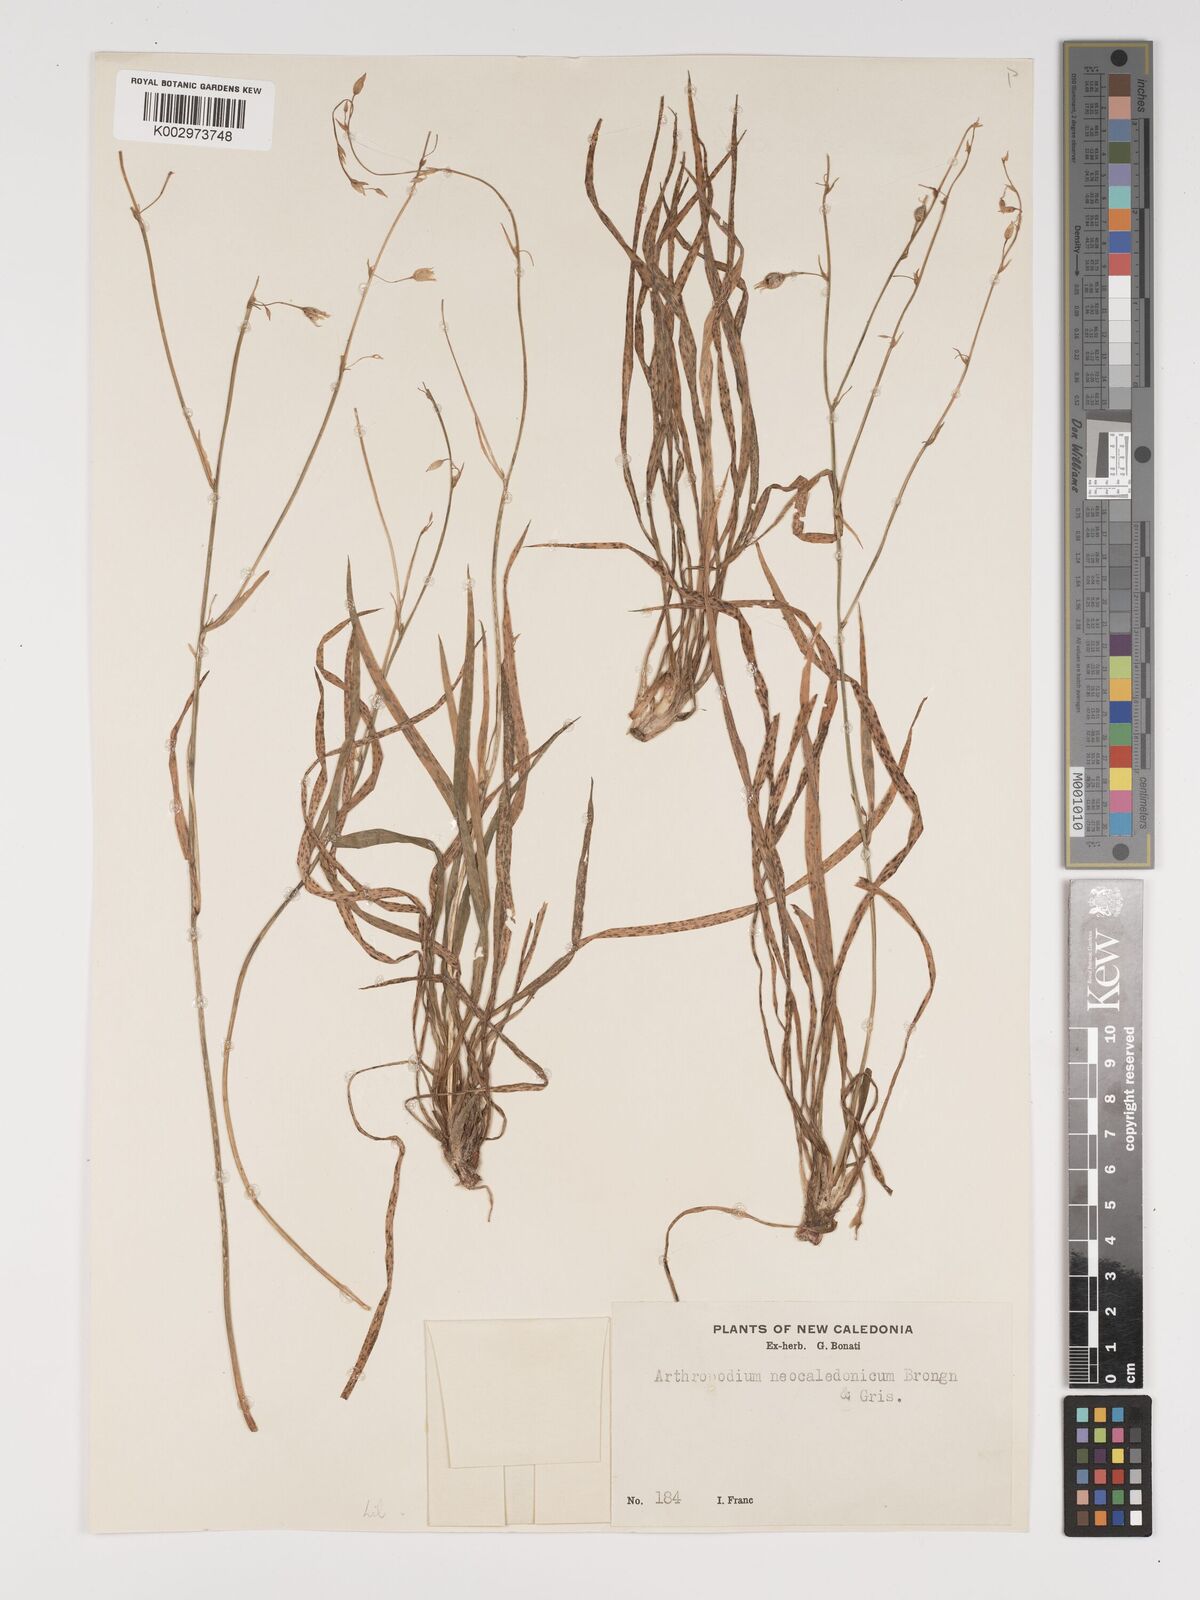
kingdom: Plantae
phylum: Tracheophyta
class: Liliopsida
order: Asparagales
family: Asparagaceae
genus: Arthropodium
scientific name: Arthropodium neocaledonicum
